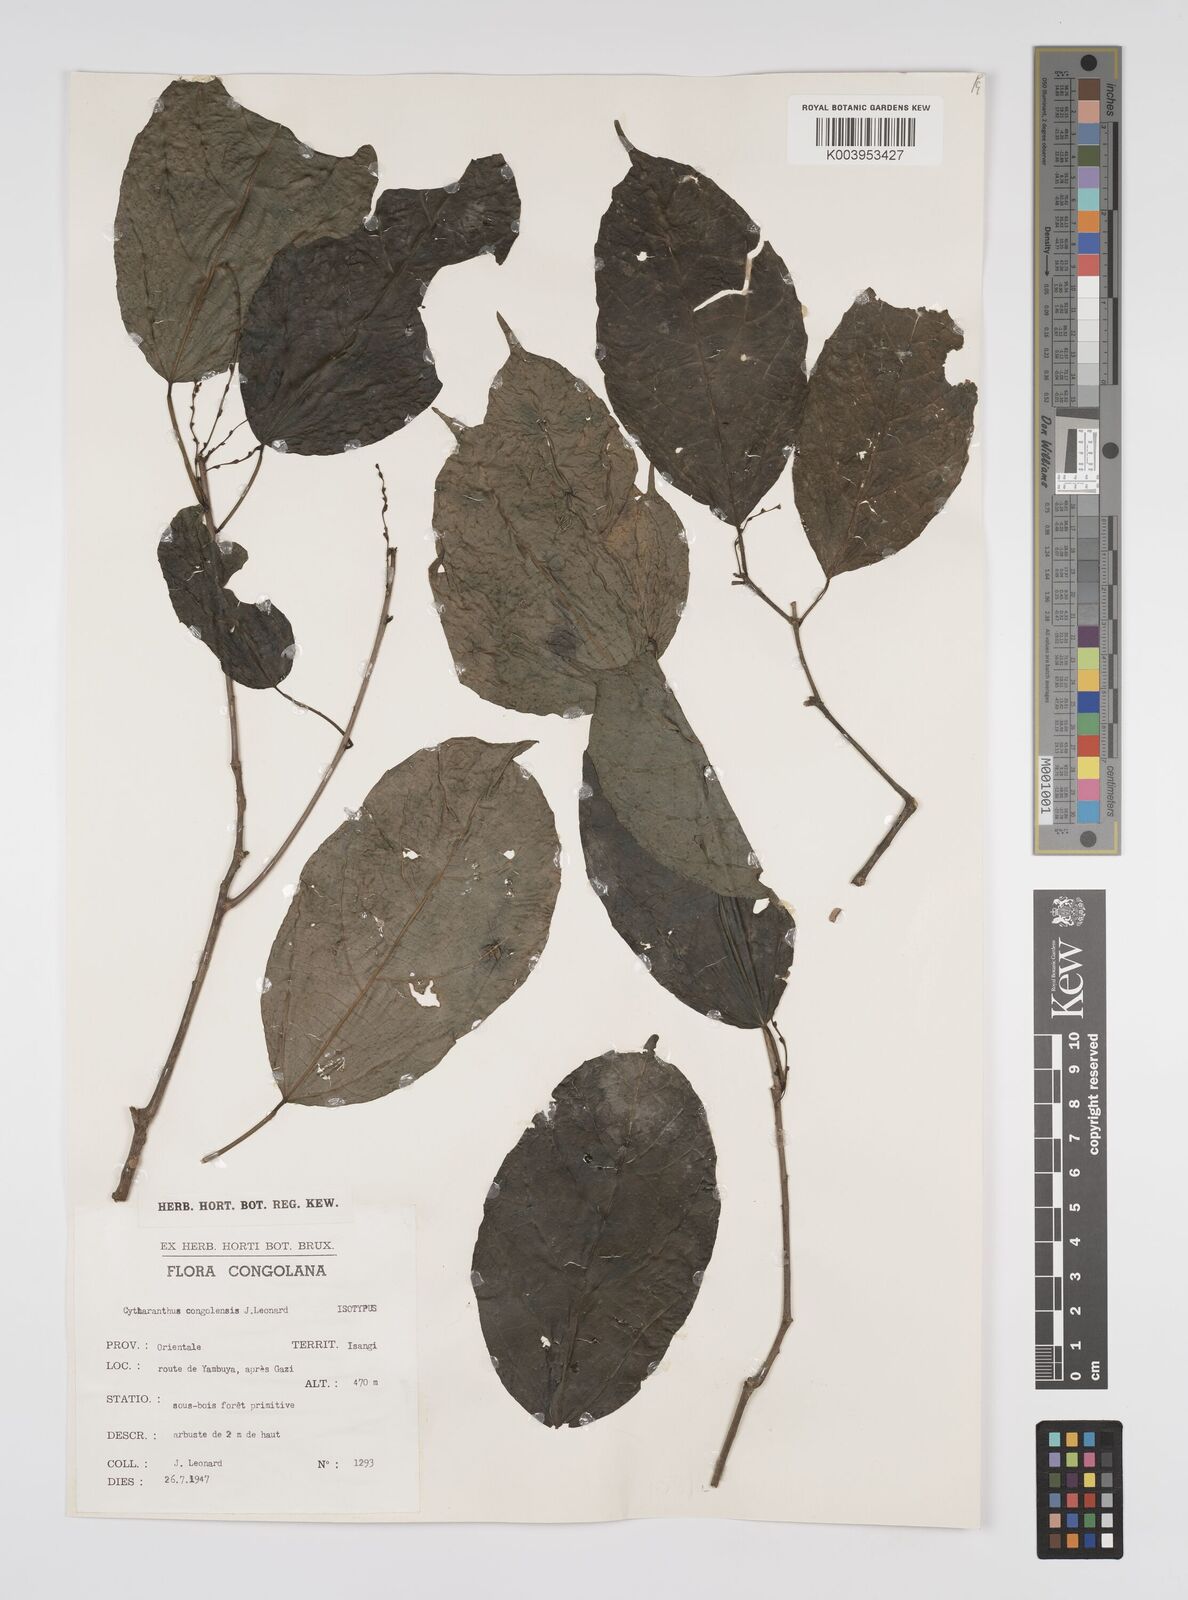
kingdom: Plantae
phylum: Tracheophyta
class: Magnoliopsida
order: Malpighiales
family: Euphorbiaceae
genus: Cyttaranthus
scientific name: Cyttaranthus congolensis
